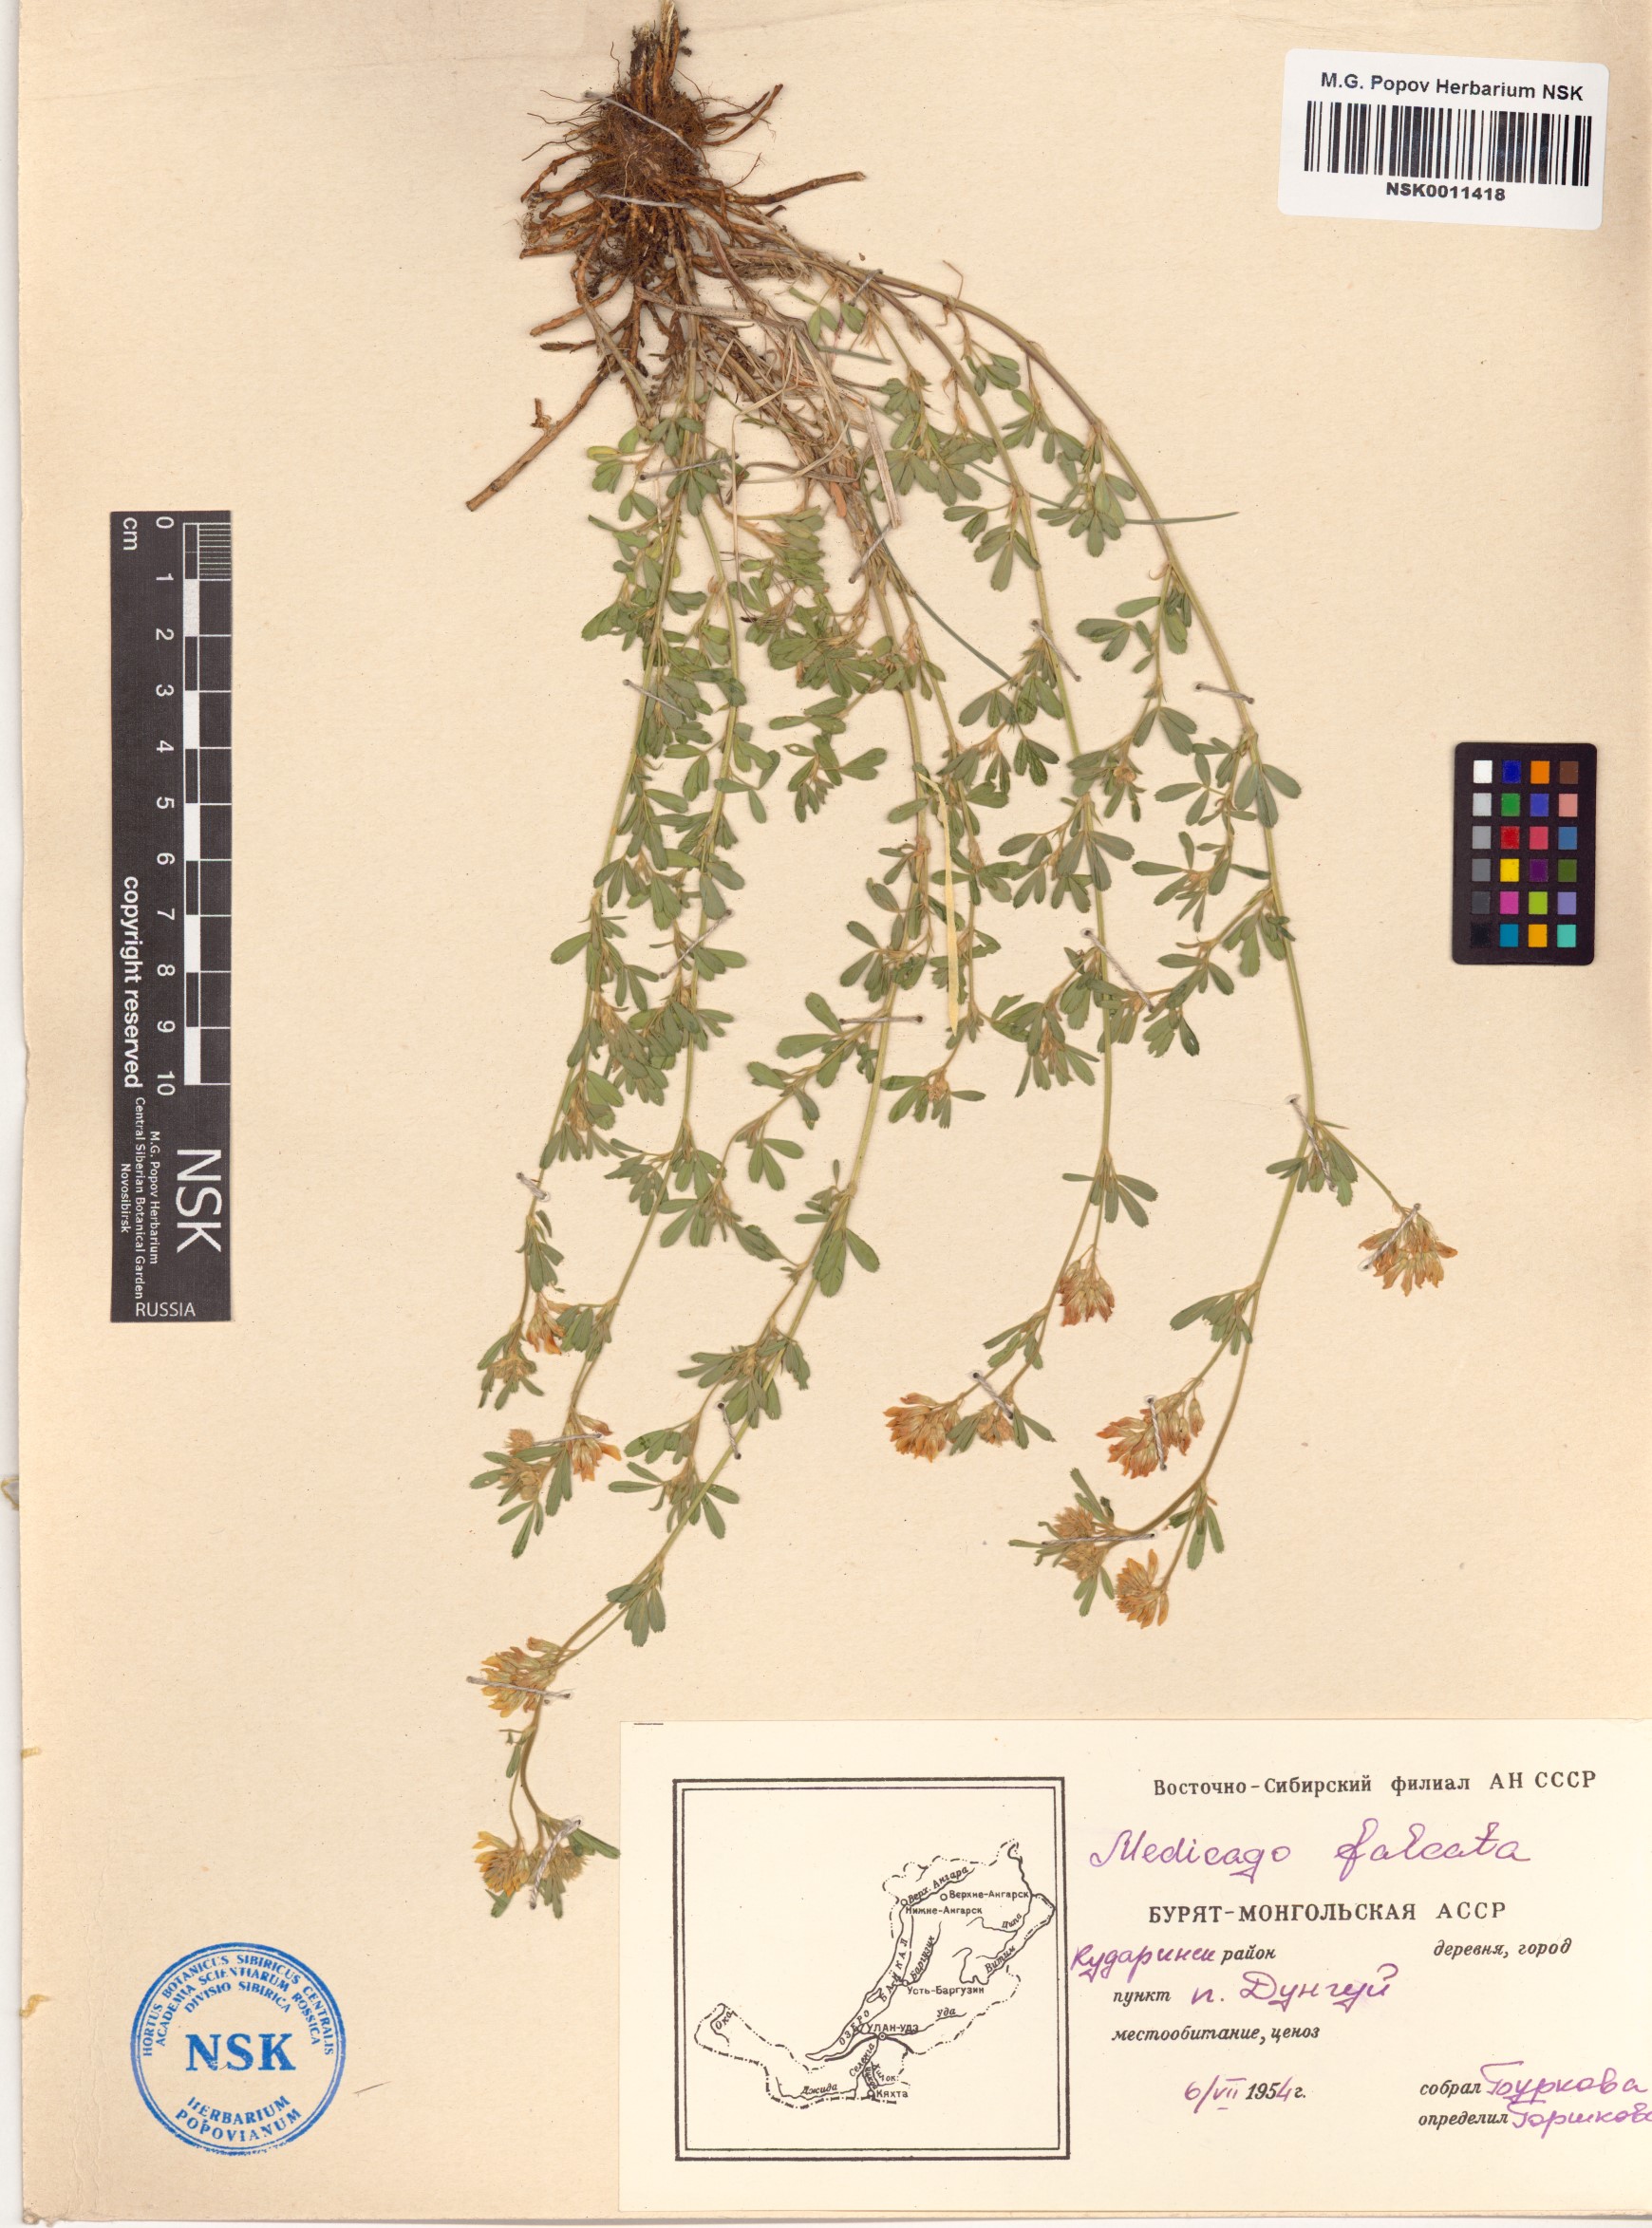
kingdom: Plantae
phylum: Tracheophyta
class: Magnoliopsida
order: Fabales
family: Fabaceae
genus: Medicago
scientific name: Medicago falcata
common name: Sickle medick
